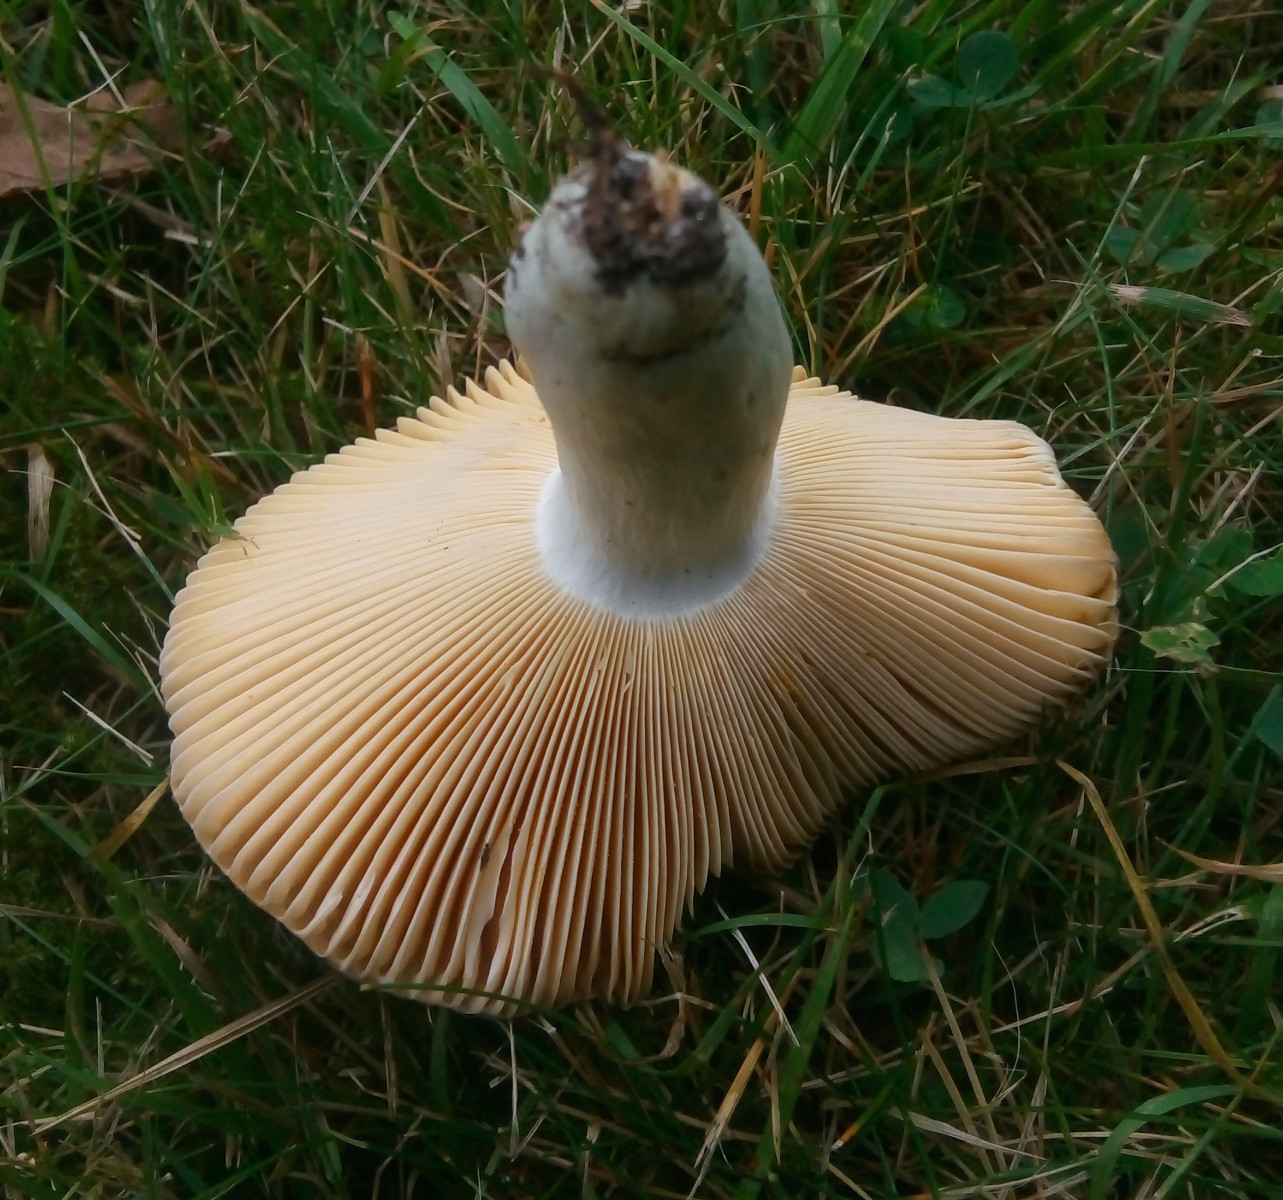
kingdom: Fungi
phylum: Basidiomycota
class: Agaricomycetes
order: Russulales
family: Russulaceae
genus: Russula
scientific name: Russula cuprea
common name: kanel-skørhat
